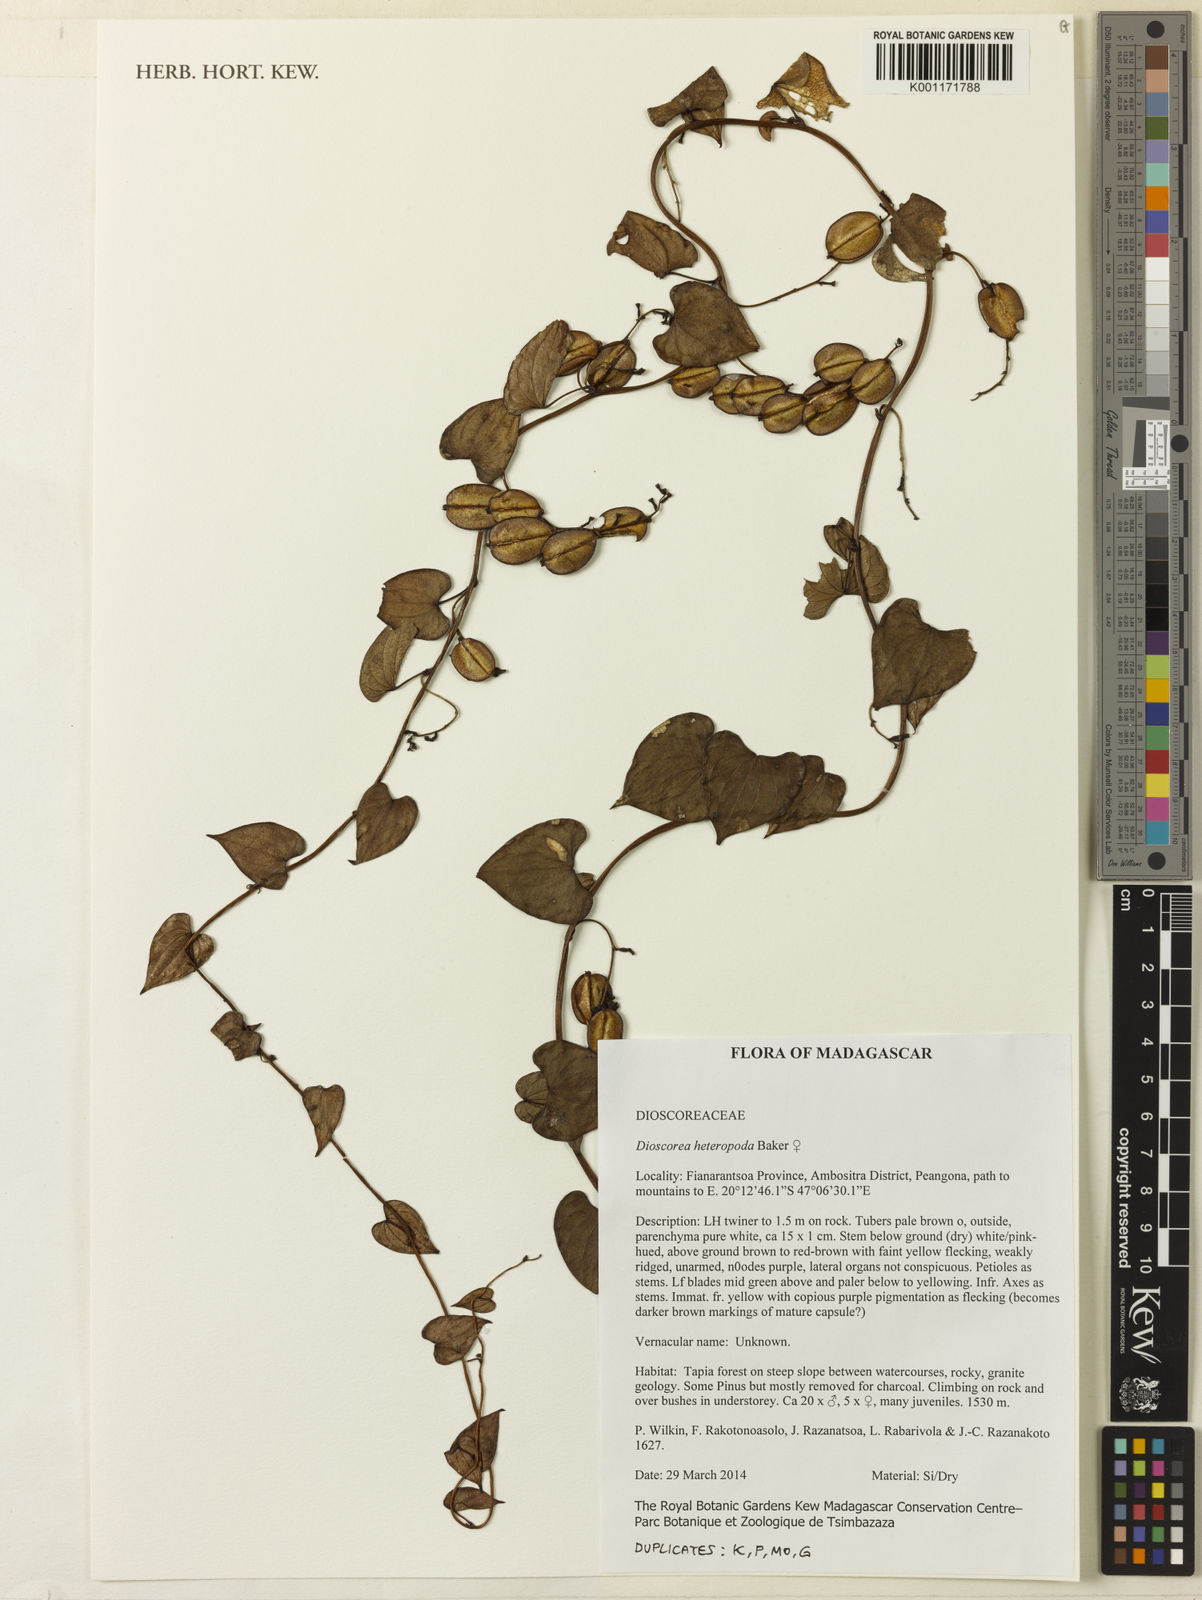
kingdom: Plantae
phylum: Tracheophyta
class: Liliopsida
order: Dioscoreales
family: Dioscoreaceae
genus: Dioscorea
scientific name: Dioscorea heteropoda
